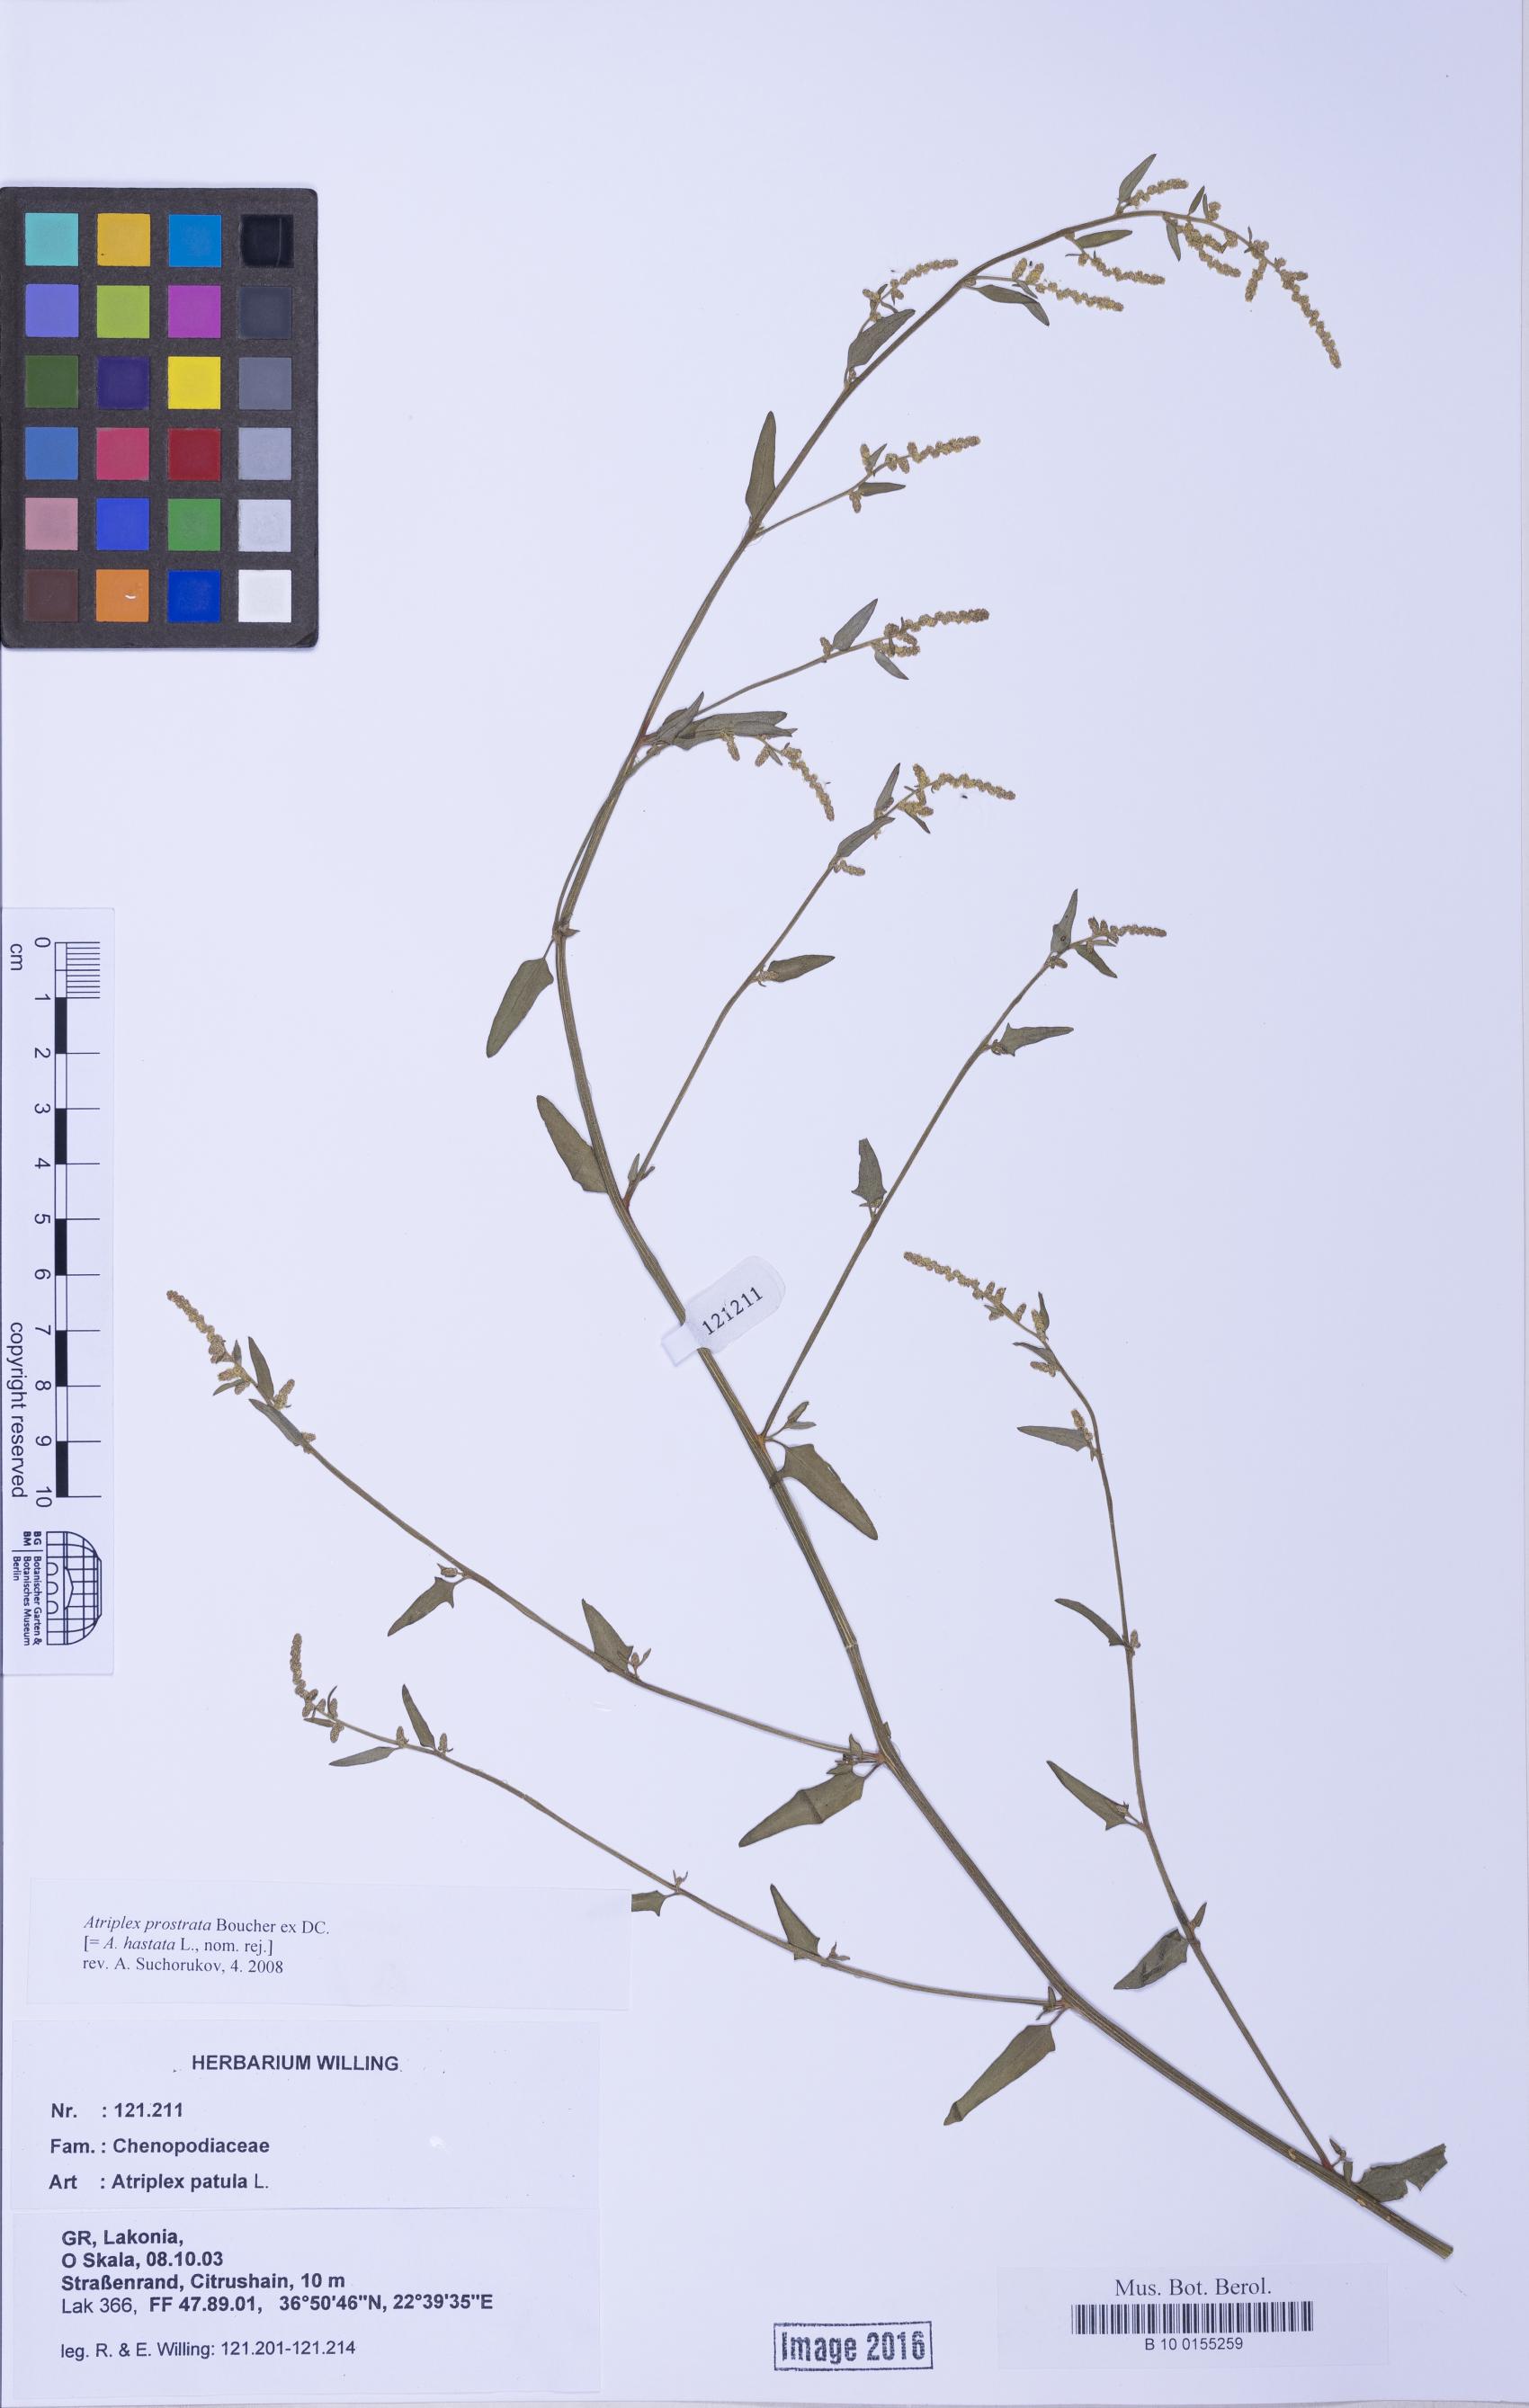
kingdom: Plantae
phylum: Tracheophyta
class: Magnoliopsida
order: Caryophyllales
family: Amaranthaceae
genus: Atriplex
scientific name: Atriplex prostrata
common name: Spear-leaved orache
